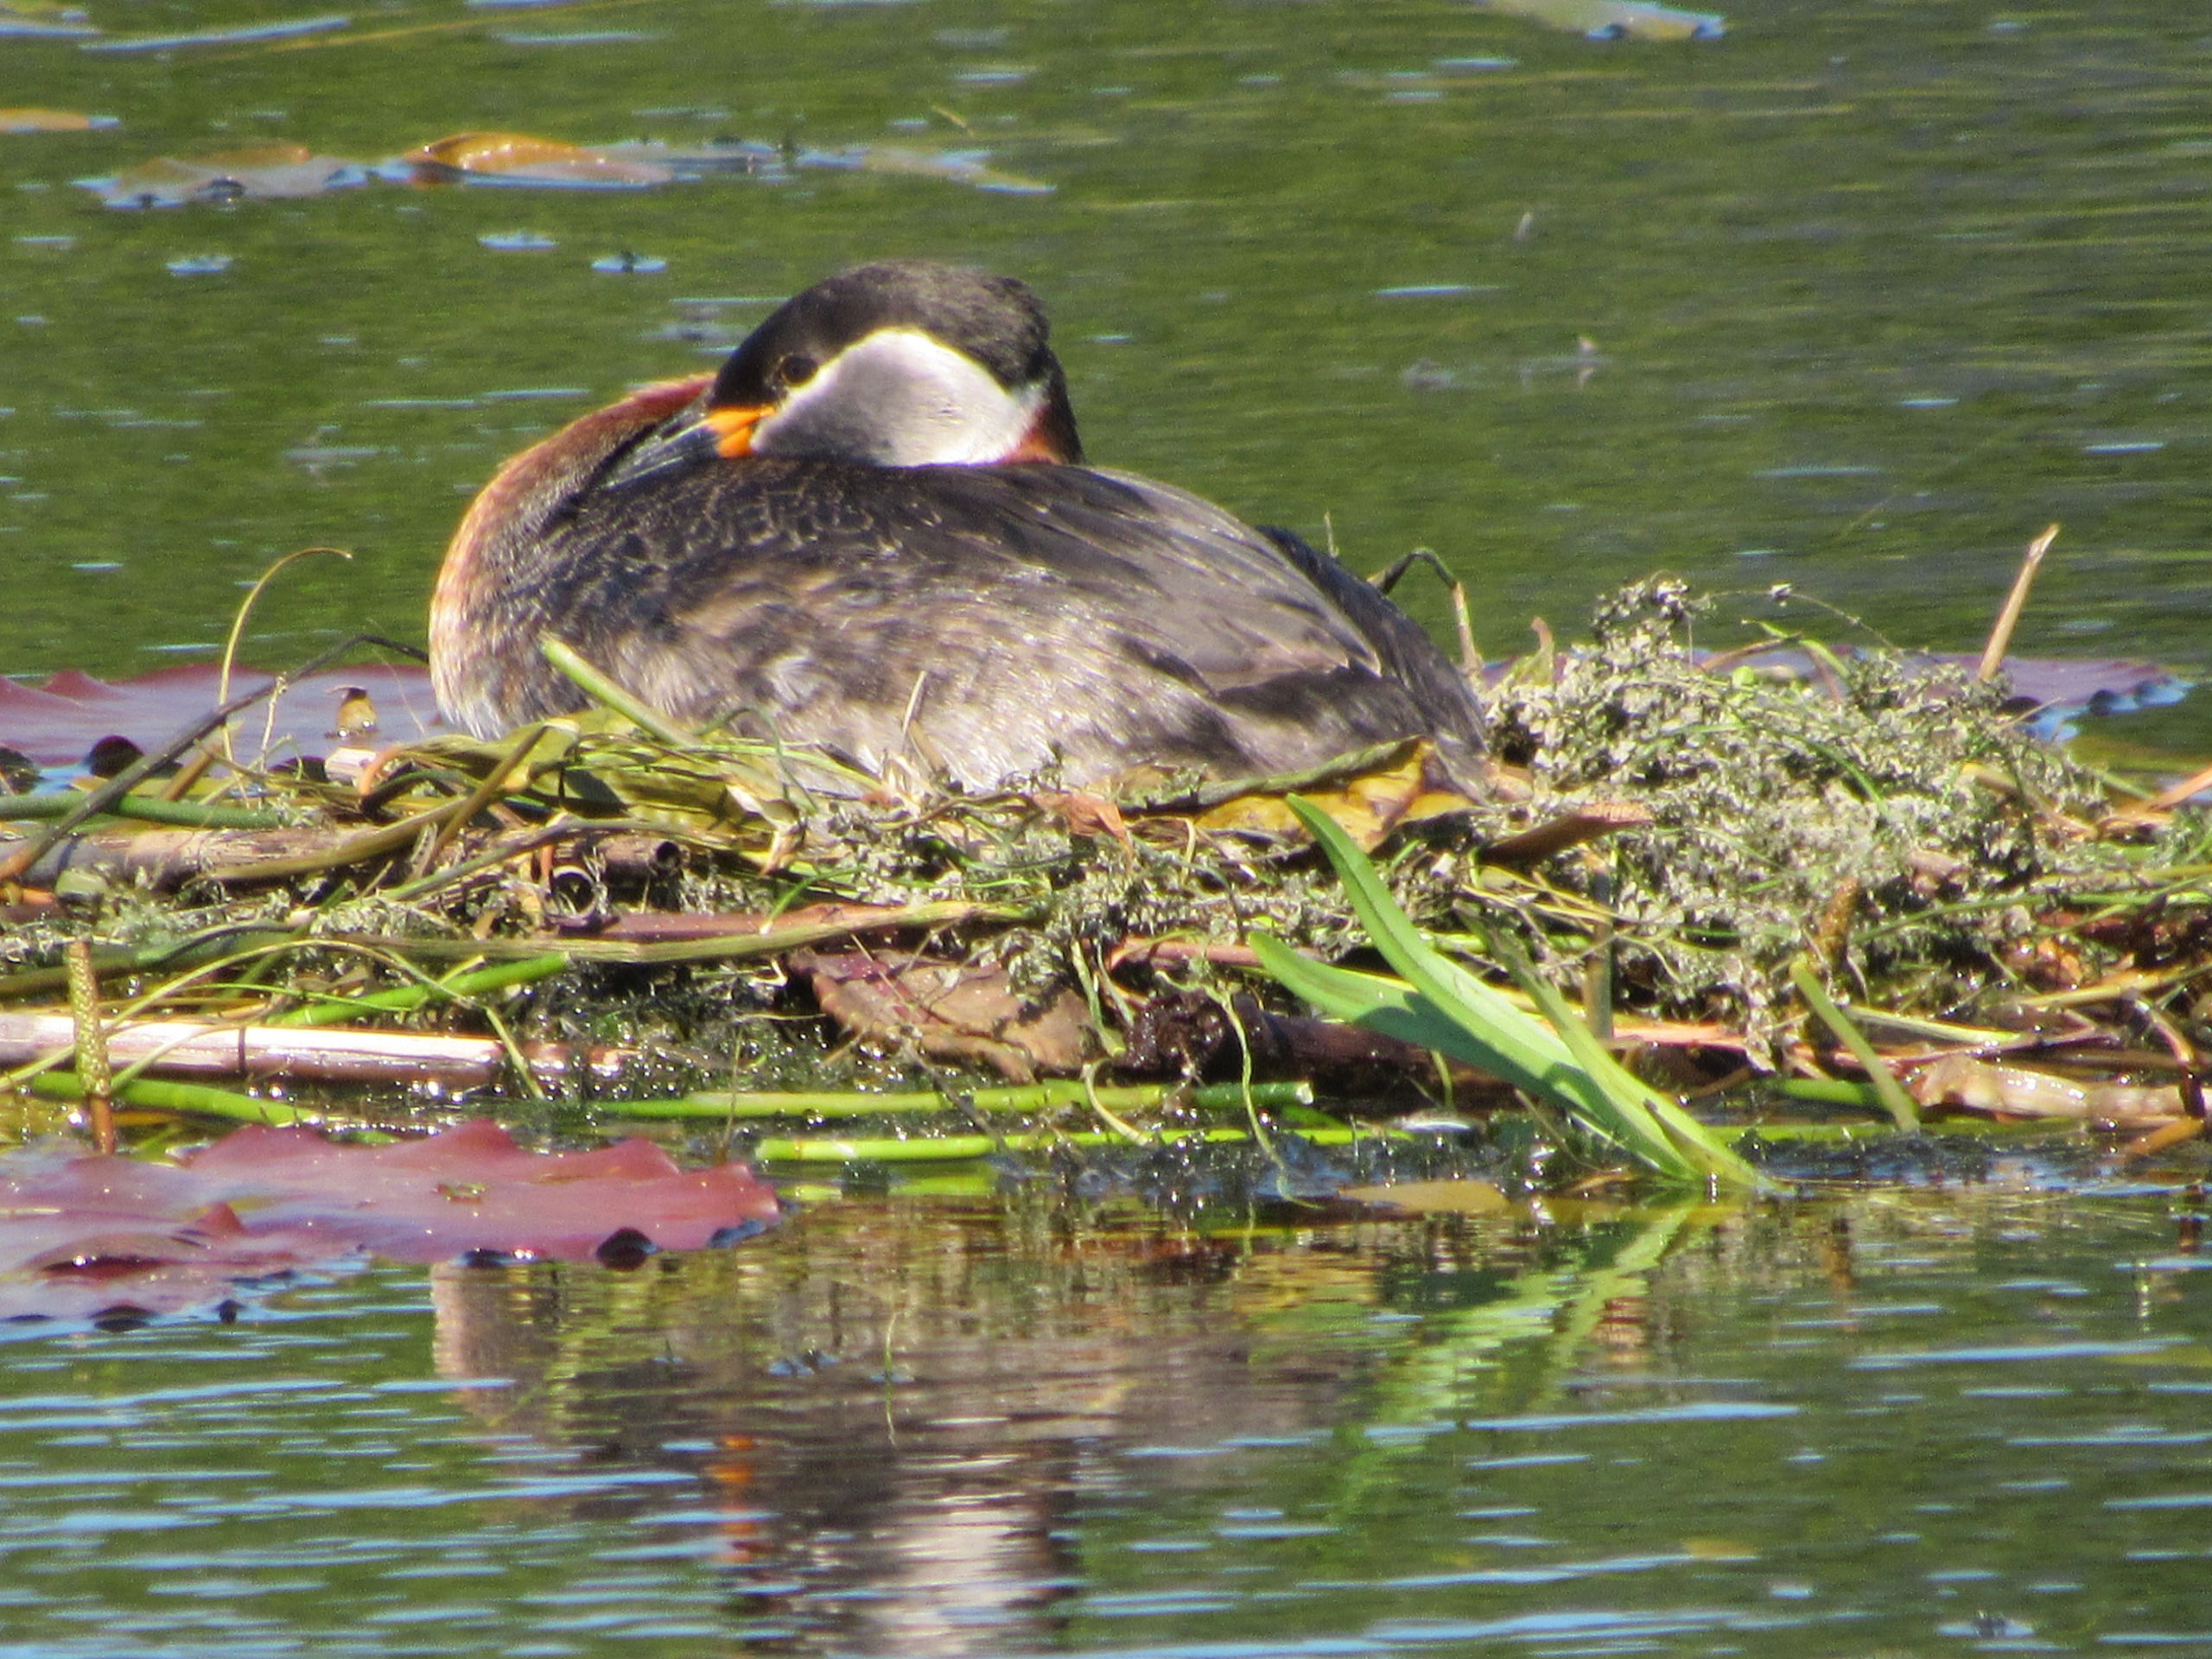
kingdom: Animalia
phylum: Chordata
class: Aves
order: Podicipediformes
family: Podicipedidae
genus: Podiceps
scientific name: Podiceps grisegena
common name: Gråstrubet lappedykker
